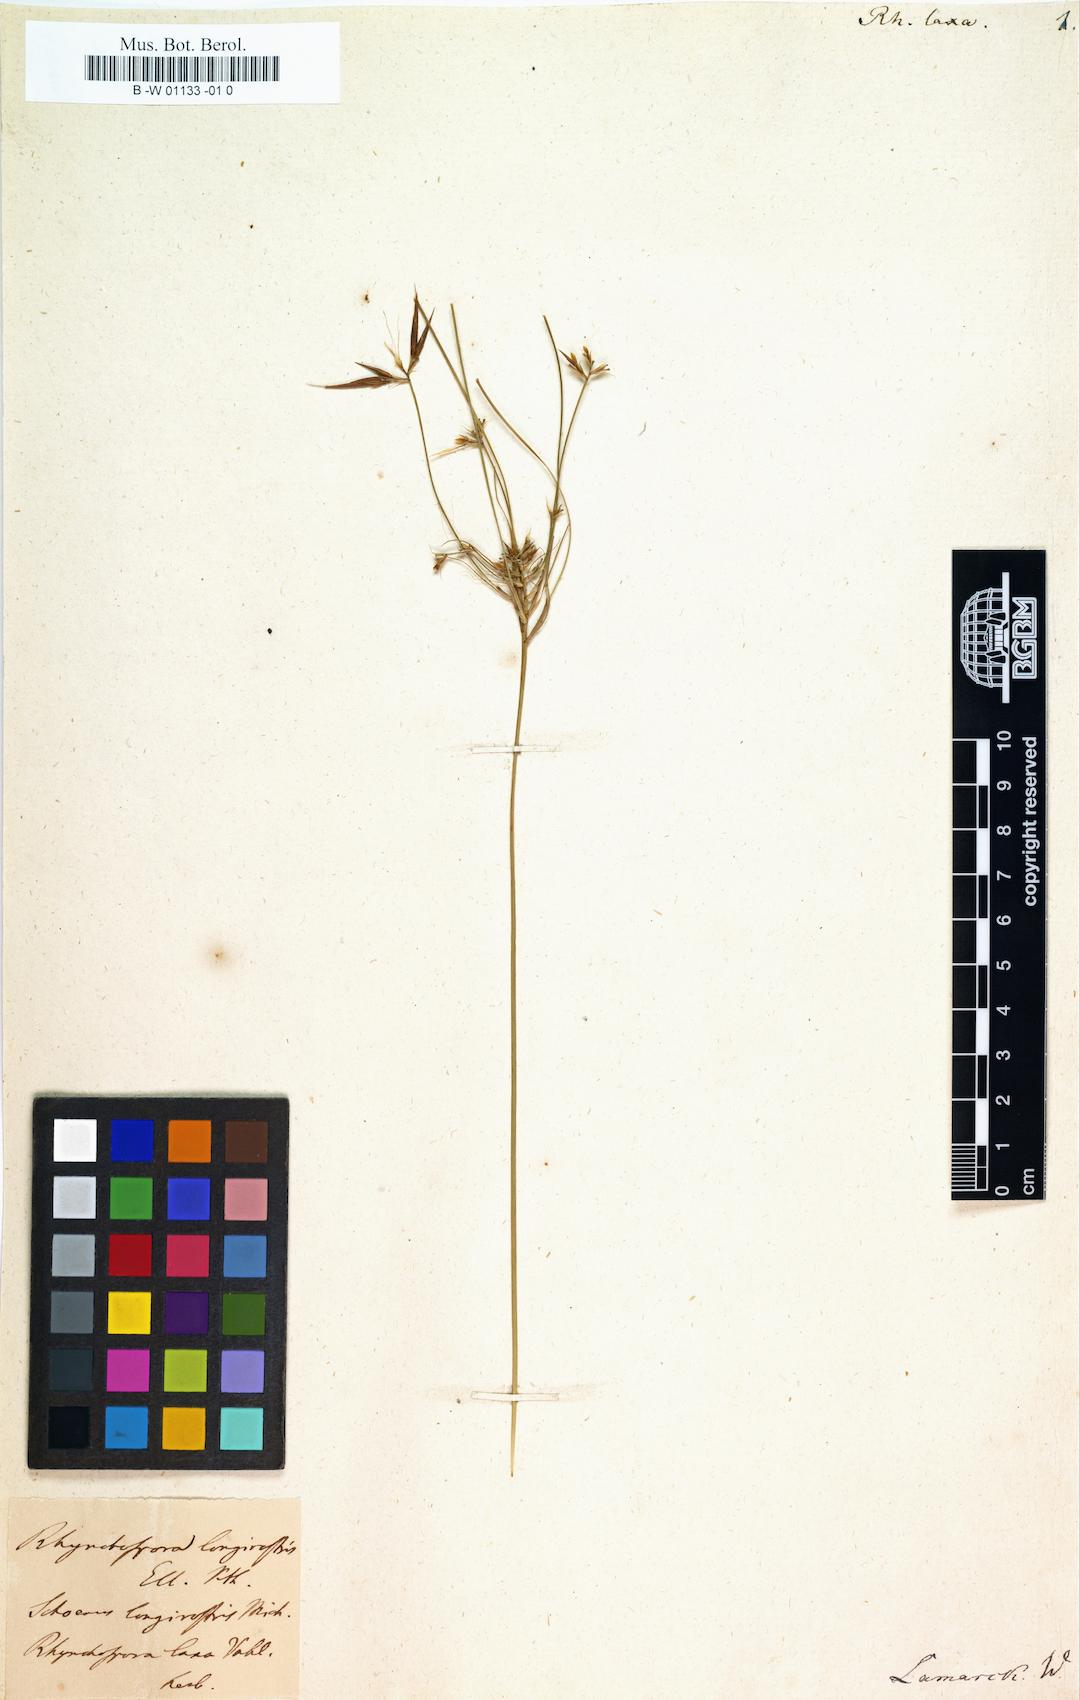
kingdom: Plantae
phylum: Tracheophyta
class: Liliopsida
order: Poales
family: Cyperaceae
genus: Rhynchospora
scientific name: Rhynchospora chinensis
